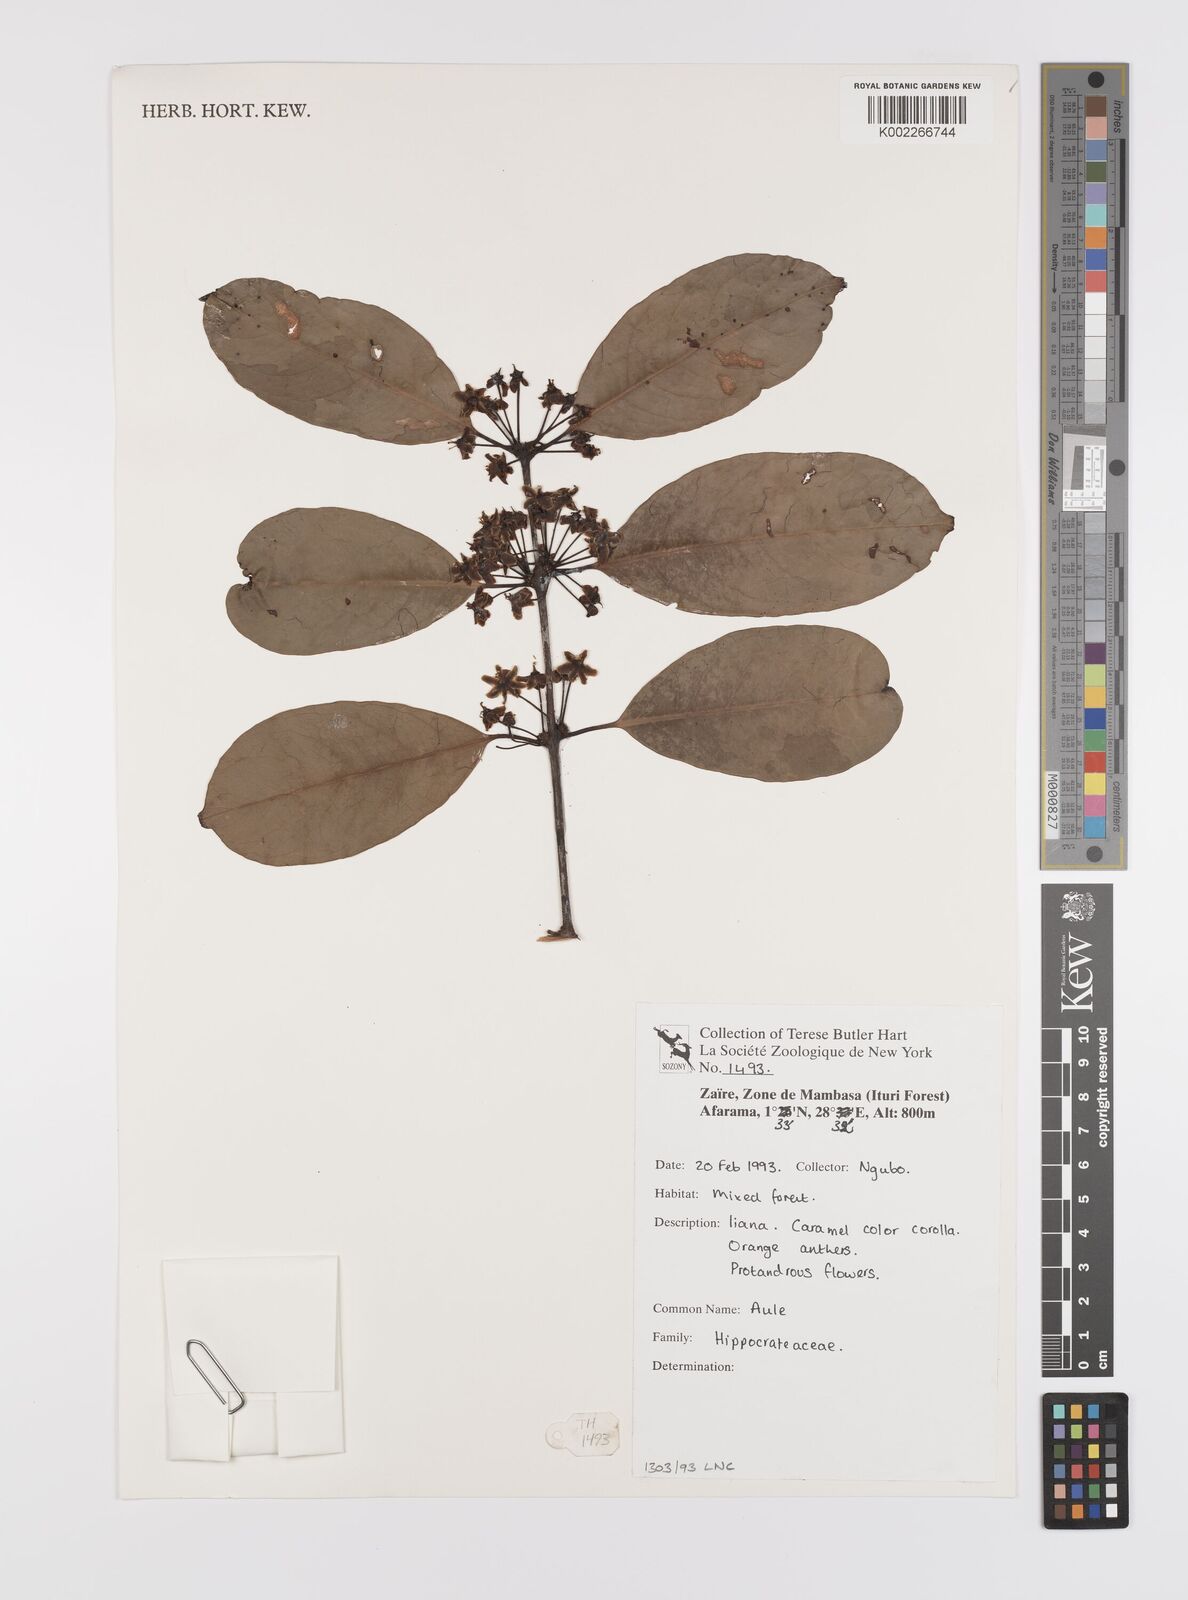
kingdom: Plantae
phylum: Tracheophyta
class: Magnoliopsida
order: Celastrales
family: Celastraceae
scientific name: Celastraceae
